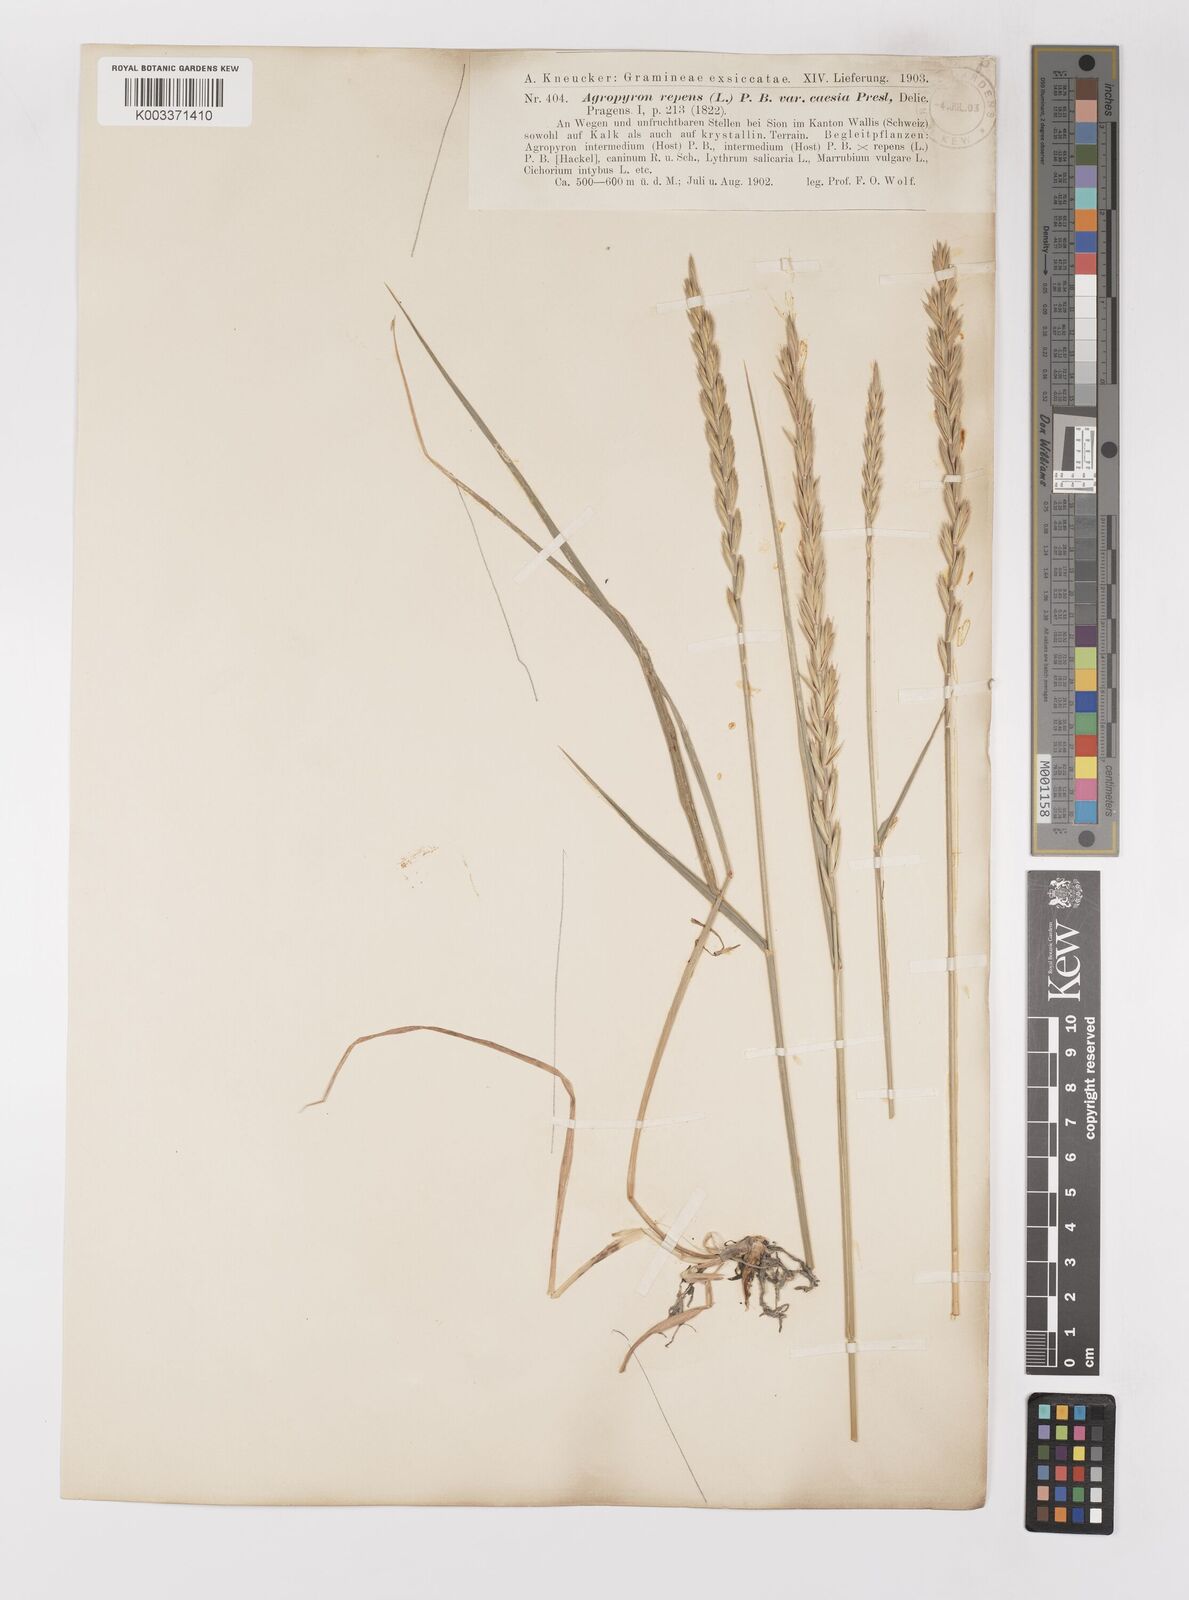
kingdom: Plantae
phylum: Tracheophyta
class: Liliopsida
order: Poales
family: Poaceae
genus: Elymus
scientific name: Elymus repens
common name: Quackgrass
